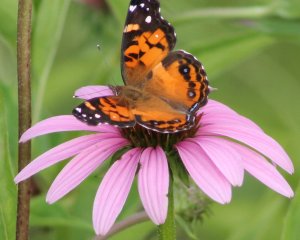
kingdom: Animalia
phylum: Arthropoda
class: Insecta
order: Lepidoptera
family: Nymphalidae
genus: Vanessa
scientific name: Vanessa virginiensis
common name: American Lady
